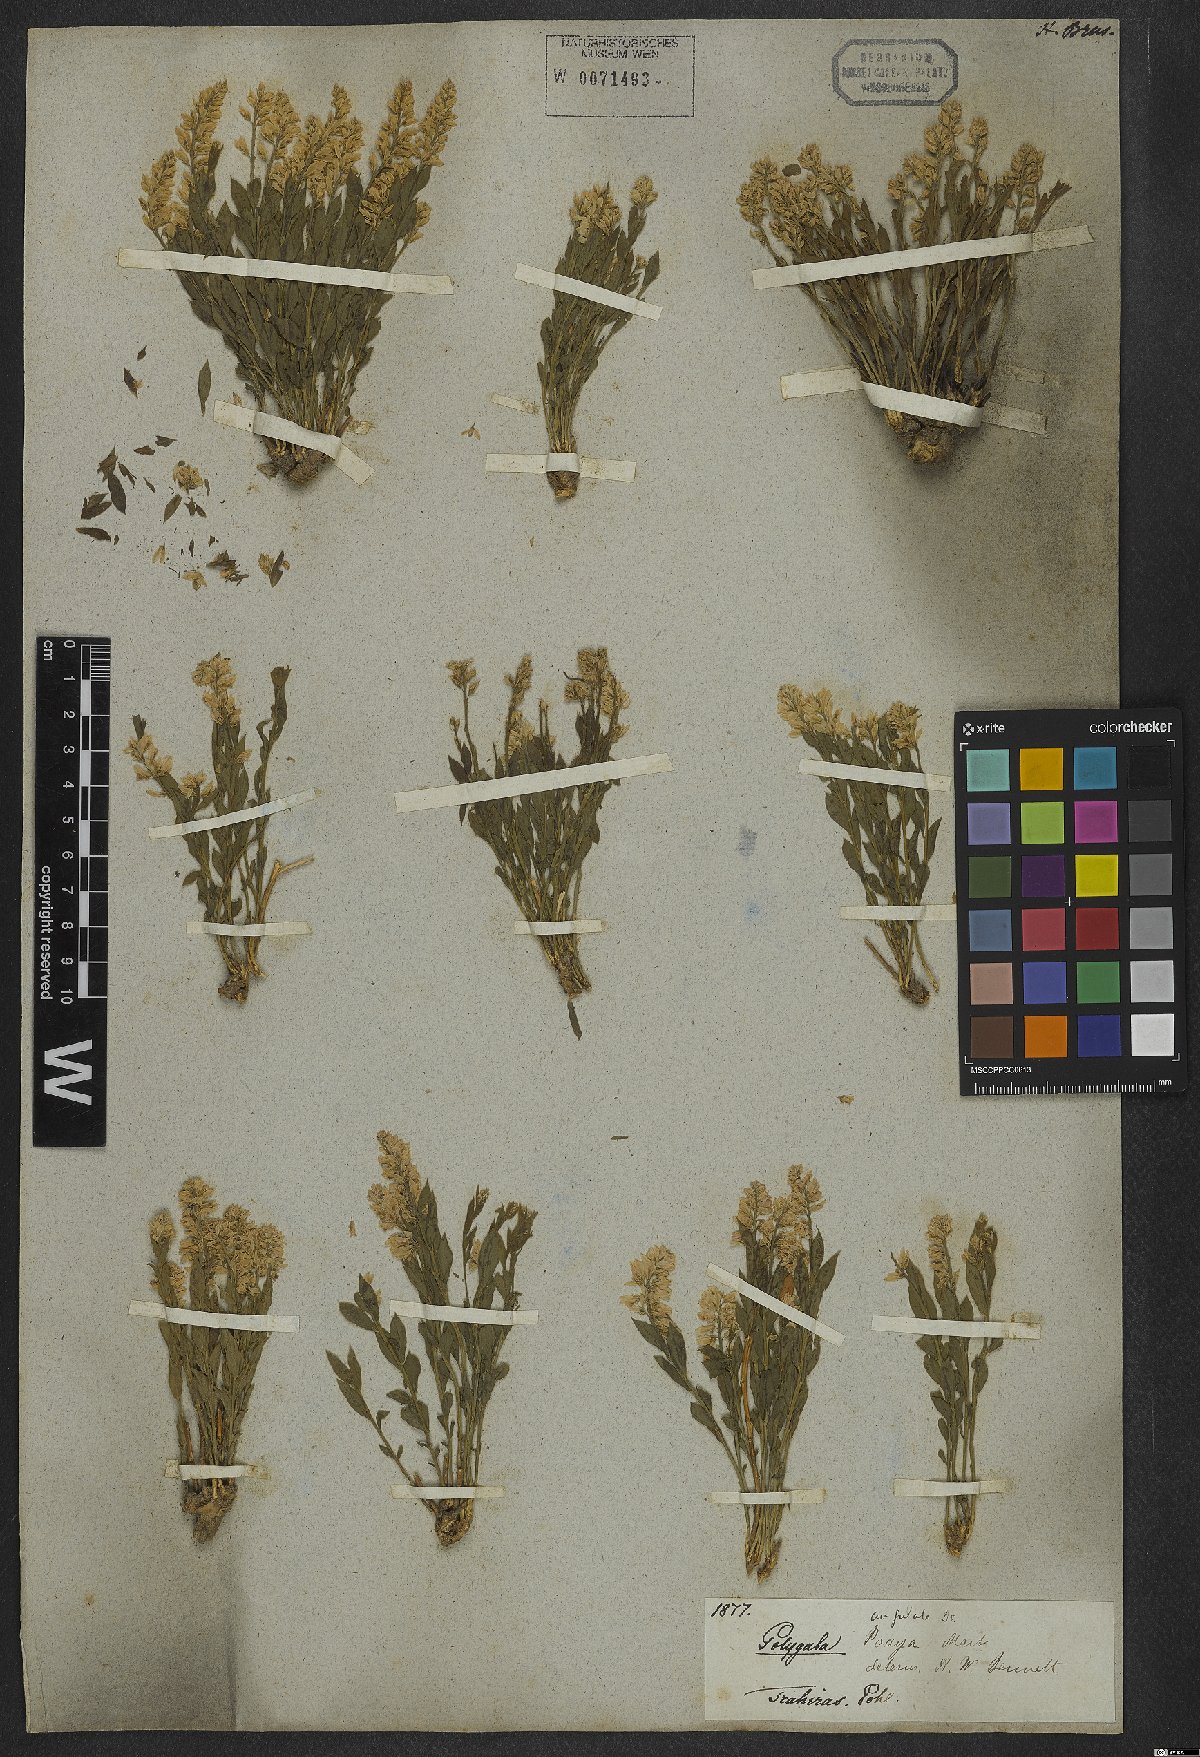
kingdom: Plantae
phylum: Tracheophyta
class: Magnoliopsida
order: Fabales
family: Polygalaceae
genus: Polygala
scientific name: Polygala poaya
